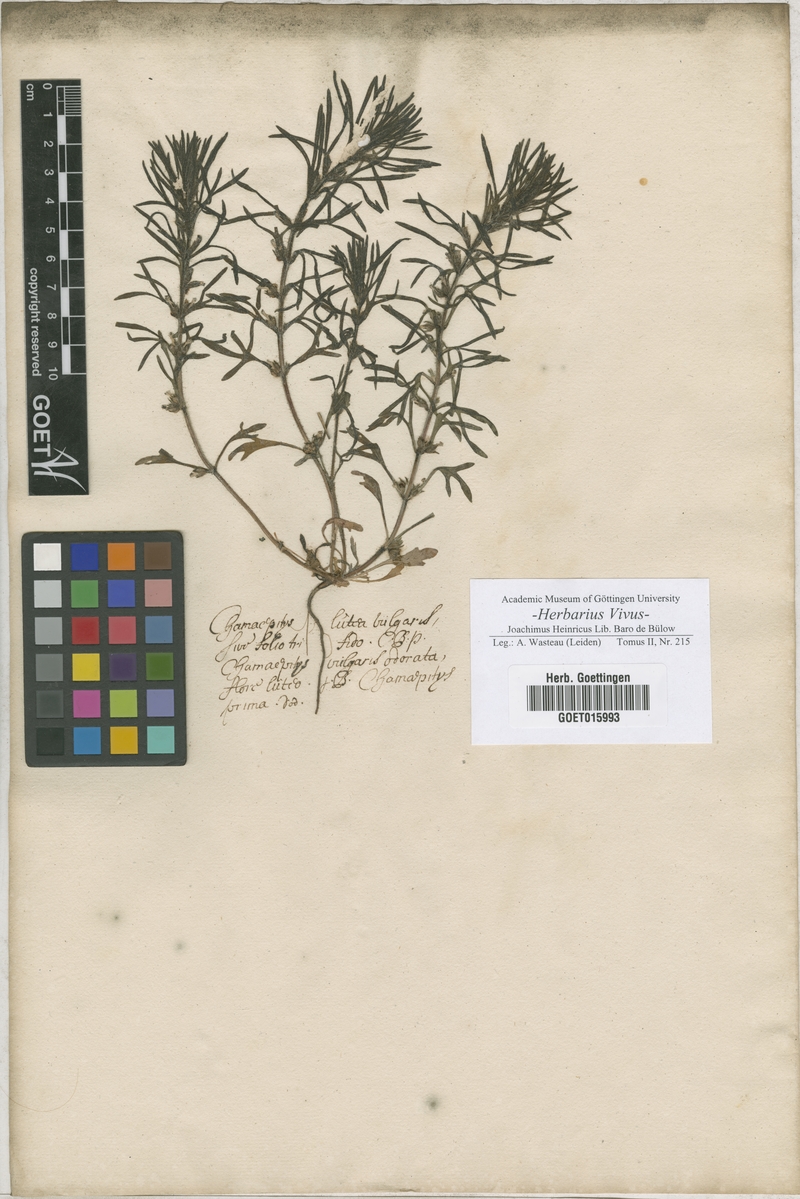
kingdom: Plantae
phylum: Tracheophyta
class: Magnoliopsida
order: Lamiales
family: Lamiaceae
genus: Ajuga
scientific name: Ajuga chamaepitys
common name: Ground-pine
